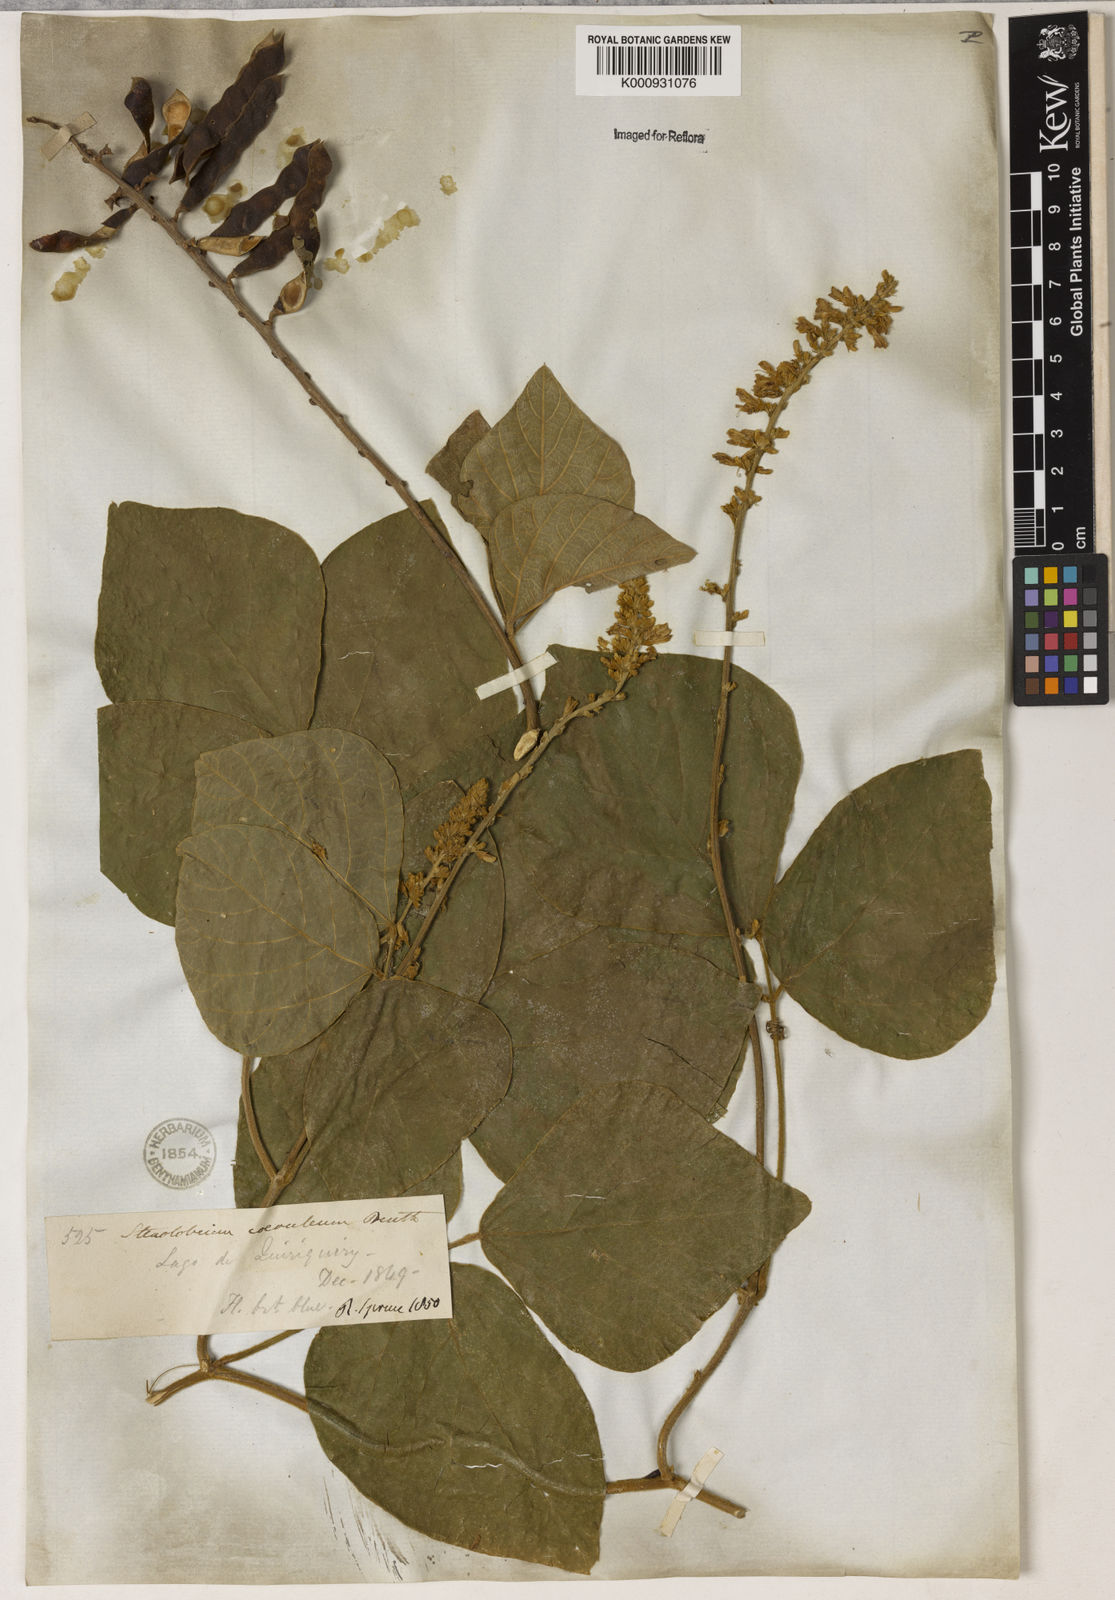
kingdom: Plantae
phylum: Tracheophyta
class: Magnoliopsida
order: Fabales
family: Fabaceae
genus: Calopogonium
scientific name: Calopogonium caeruleum
